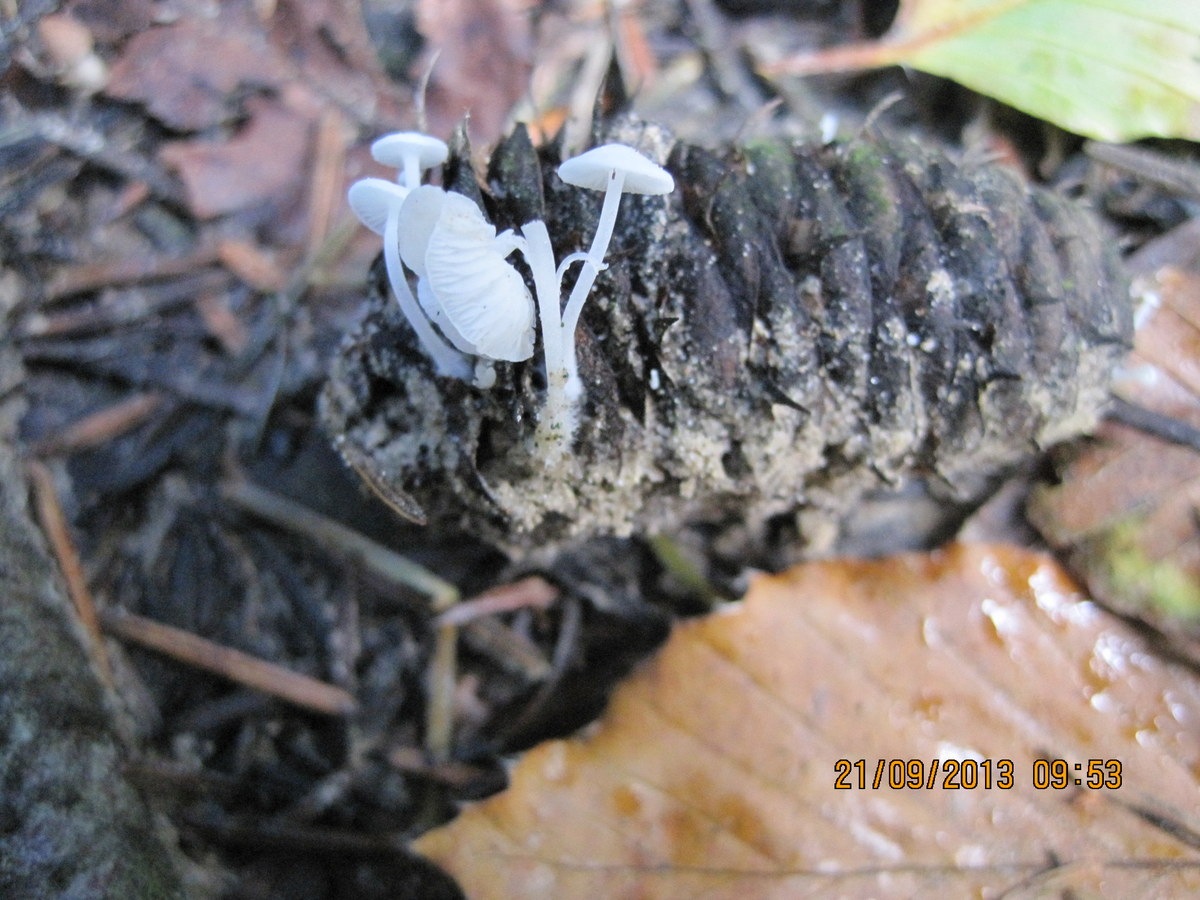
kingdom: Fungi
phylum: Basidiomycota
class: Agaricomycetes
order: Agaricales
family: Mycenaceae
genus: Hemimycena
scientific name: Hemimycena lactea
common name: mælkehvid huesvamp
